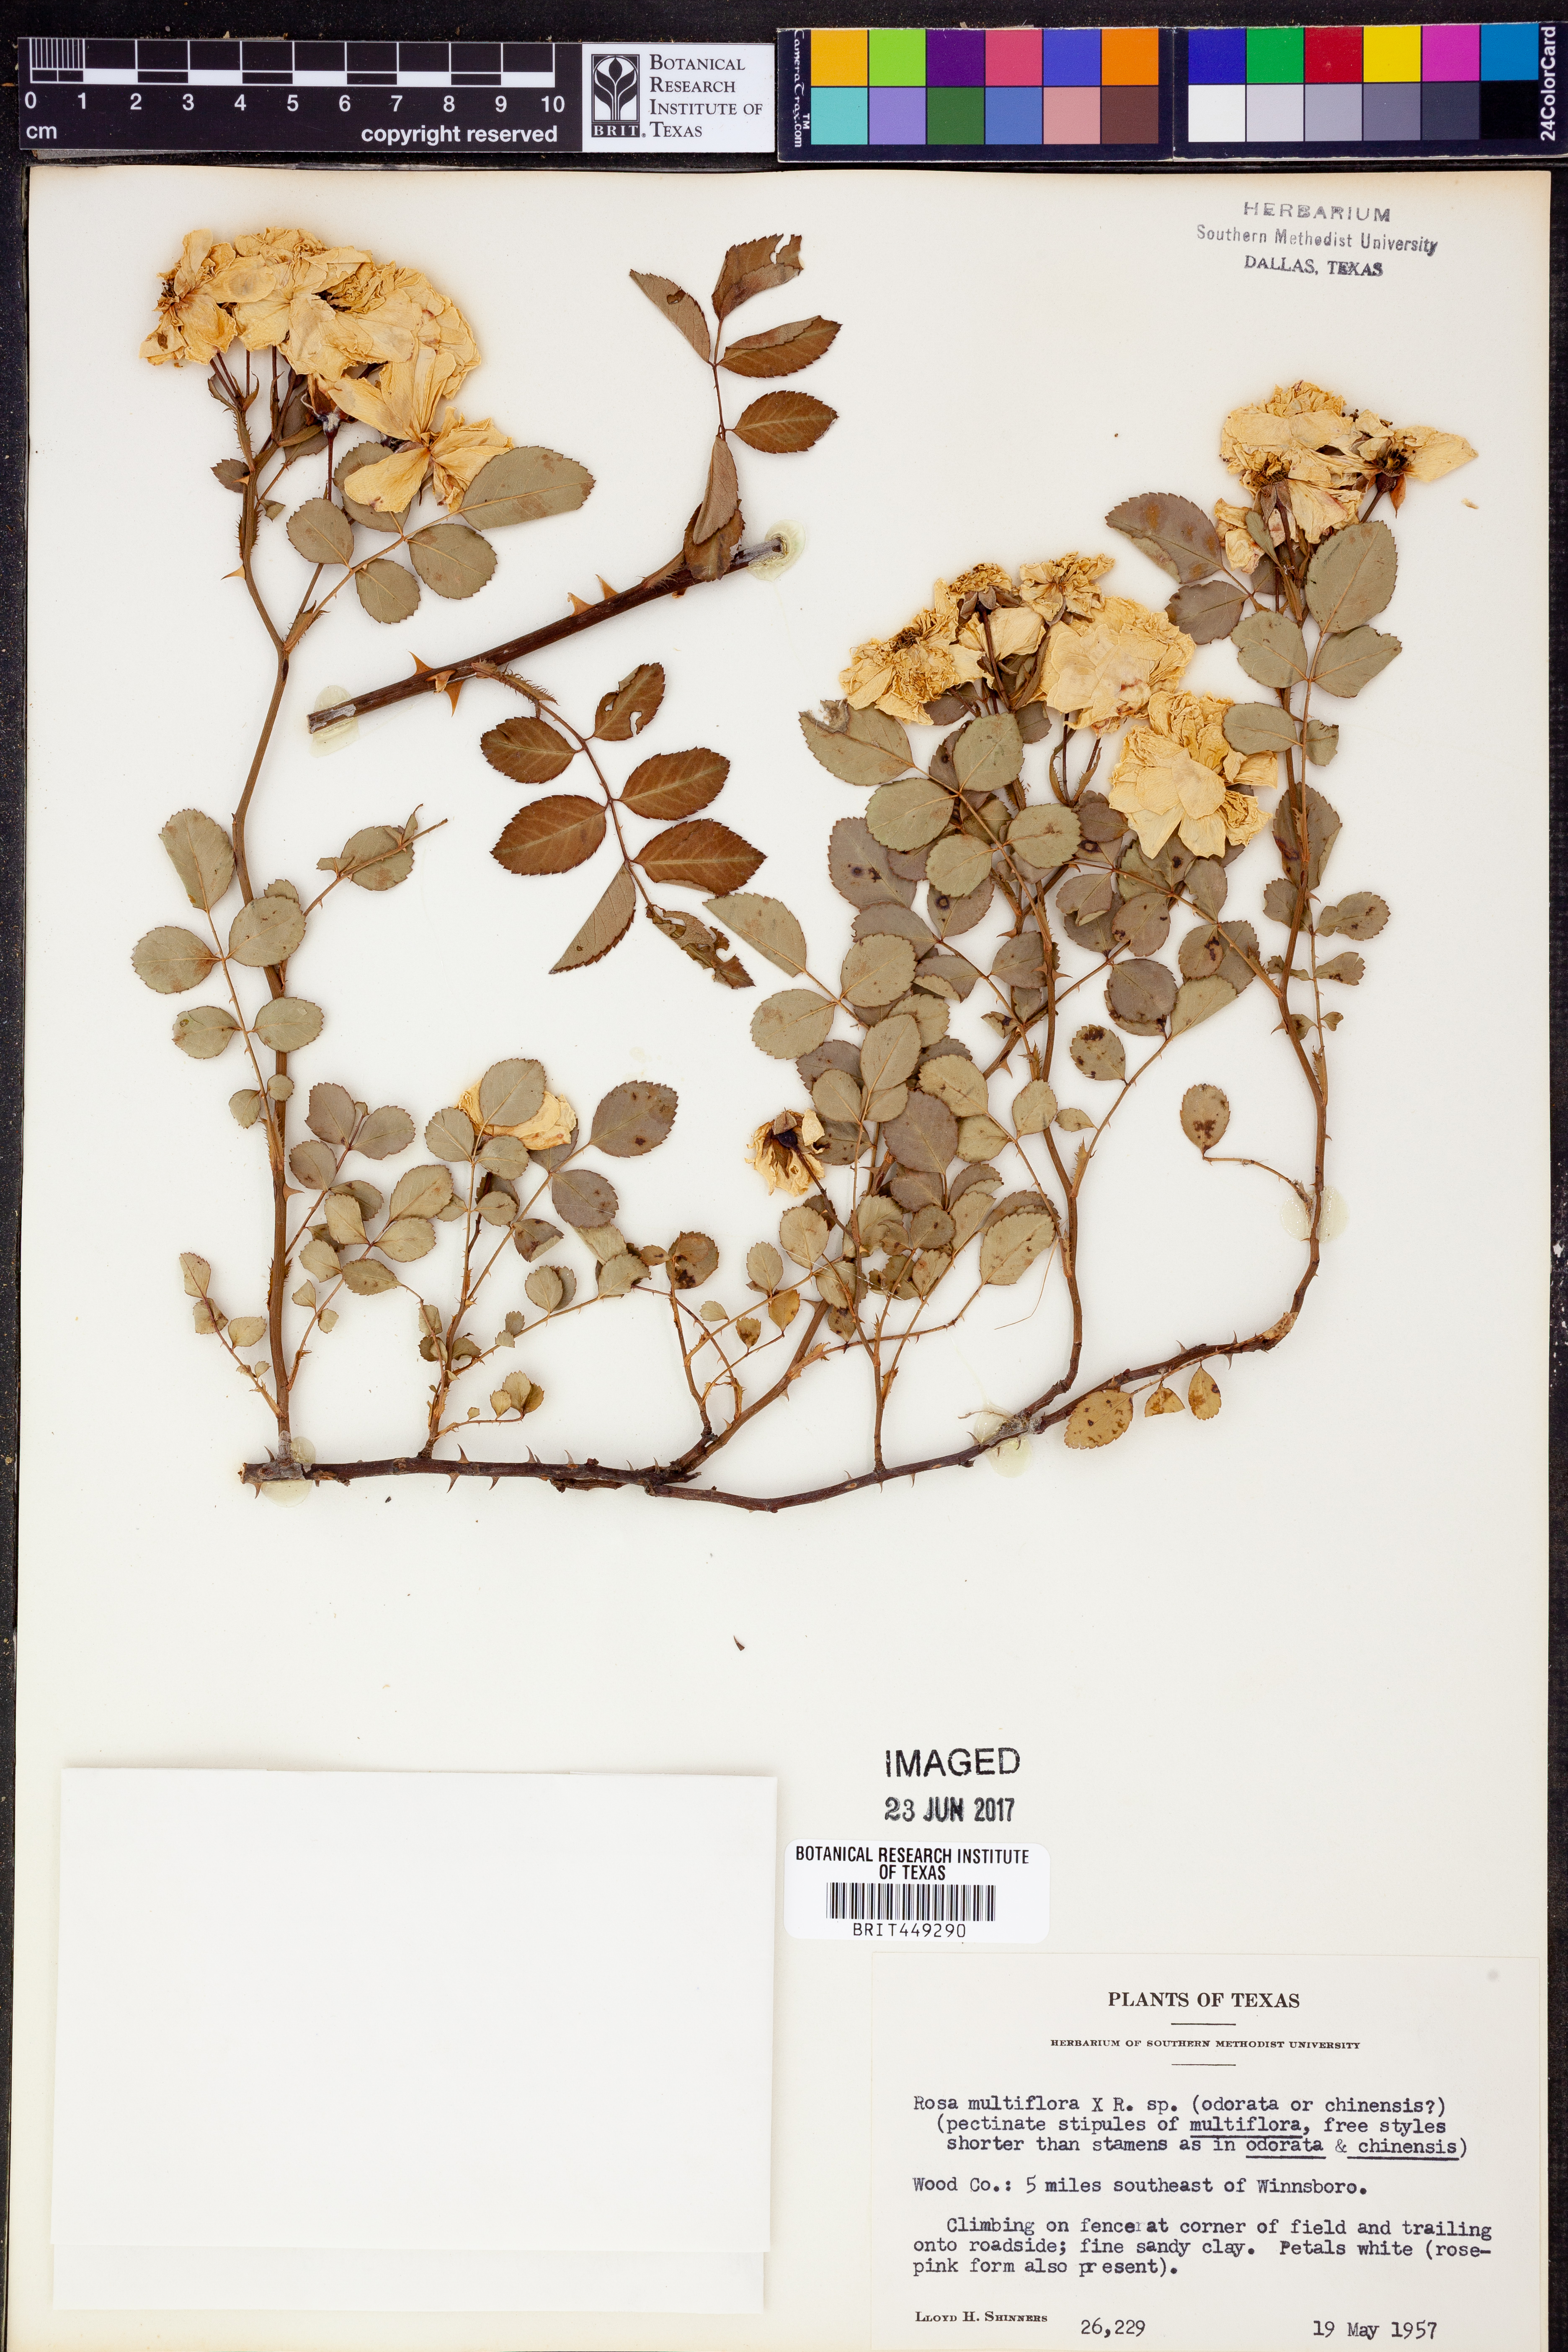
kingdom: Plantae
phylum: Tracheophyta
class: Magnoliopsida
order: Rosales
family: Rosaceae
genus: Rosa
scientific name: Rosa multiflora
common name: Multiflora rose
